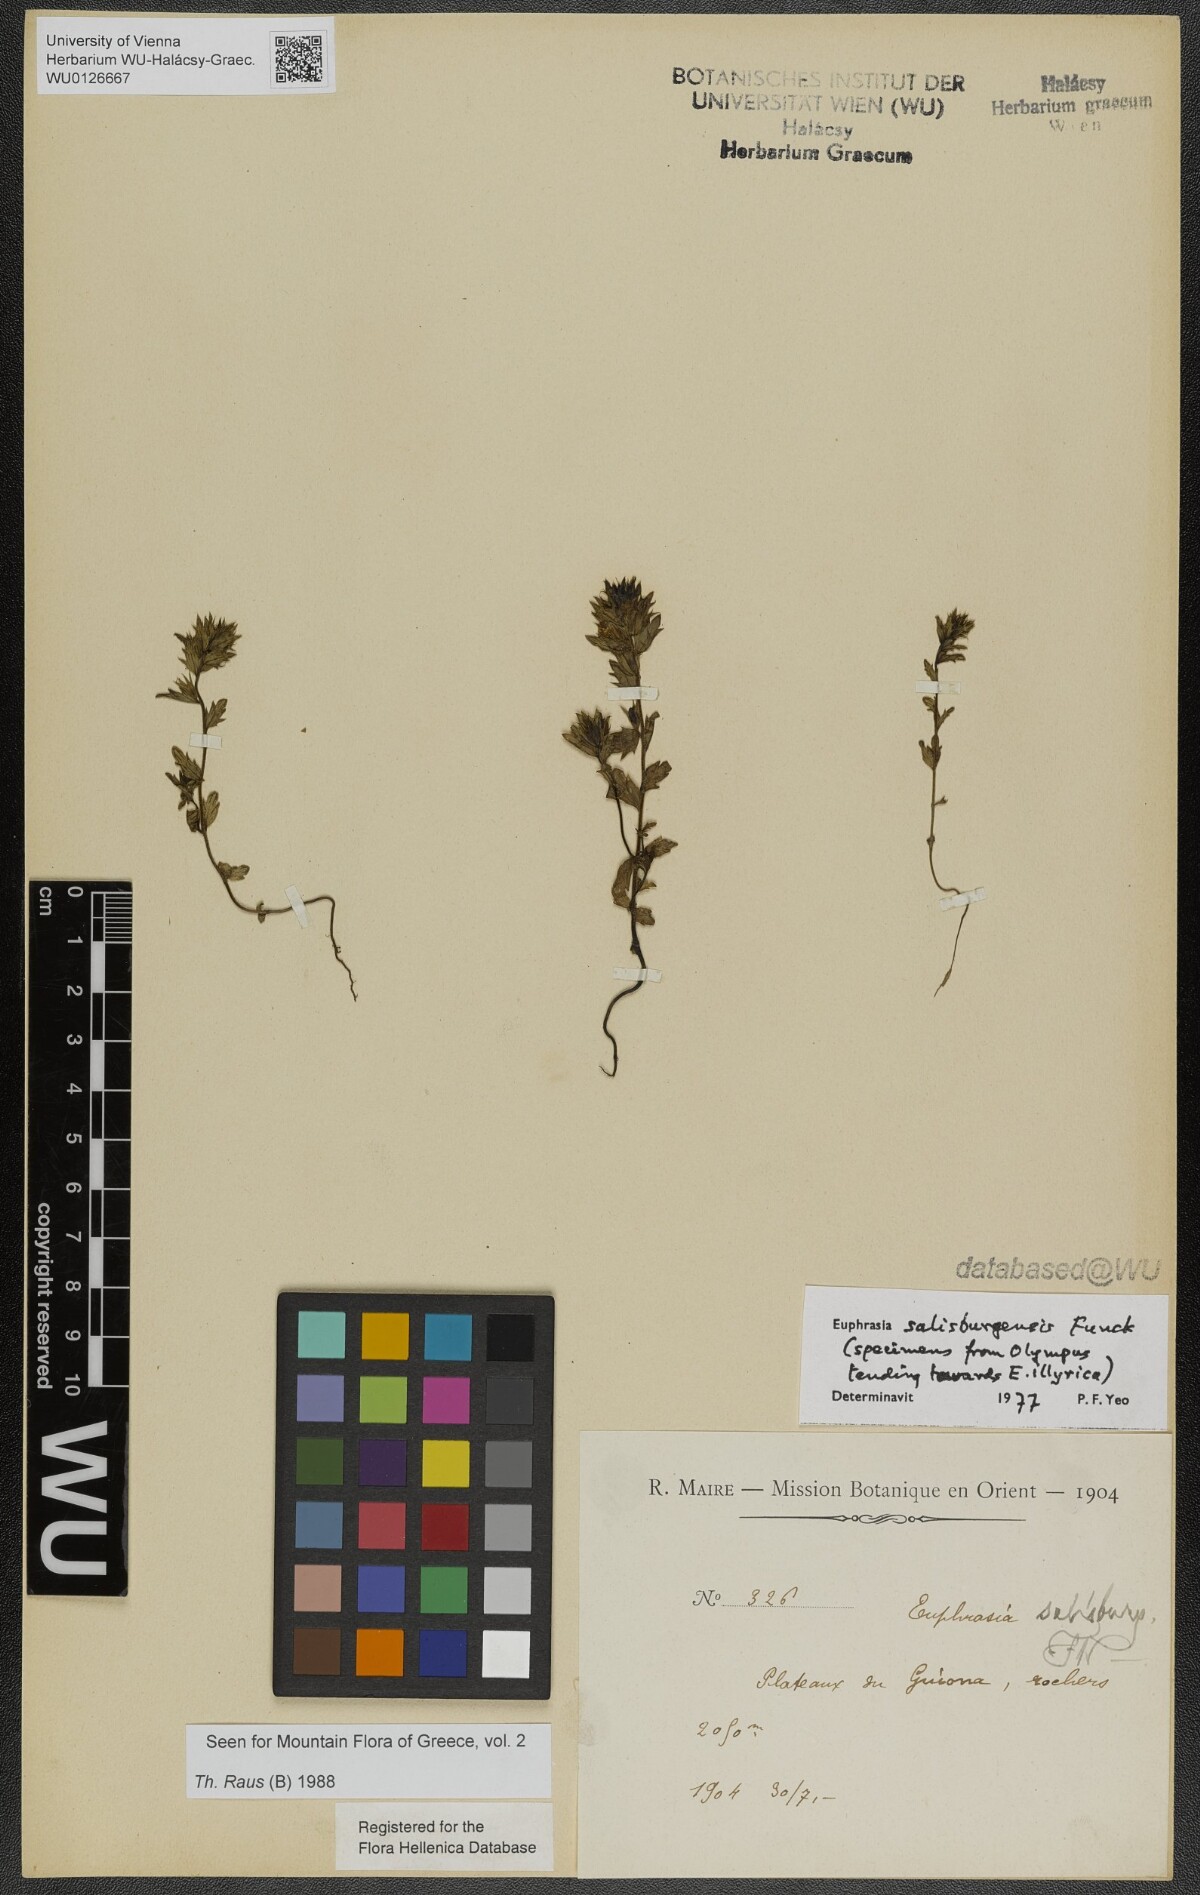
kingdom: Plantae
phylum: Tracheophyta
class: Magnoliopsida
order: Lamiales
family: Orobanchaceae
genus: Euphrasia
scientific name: Euphrasia salisburgensis
